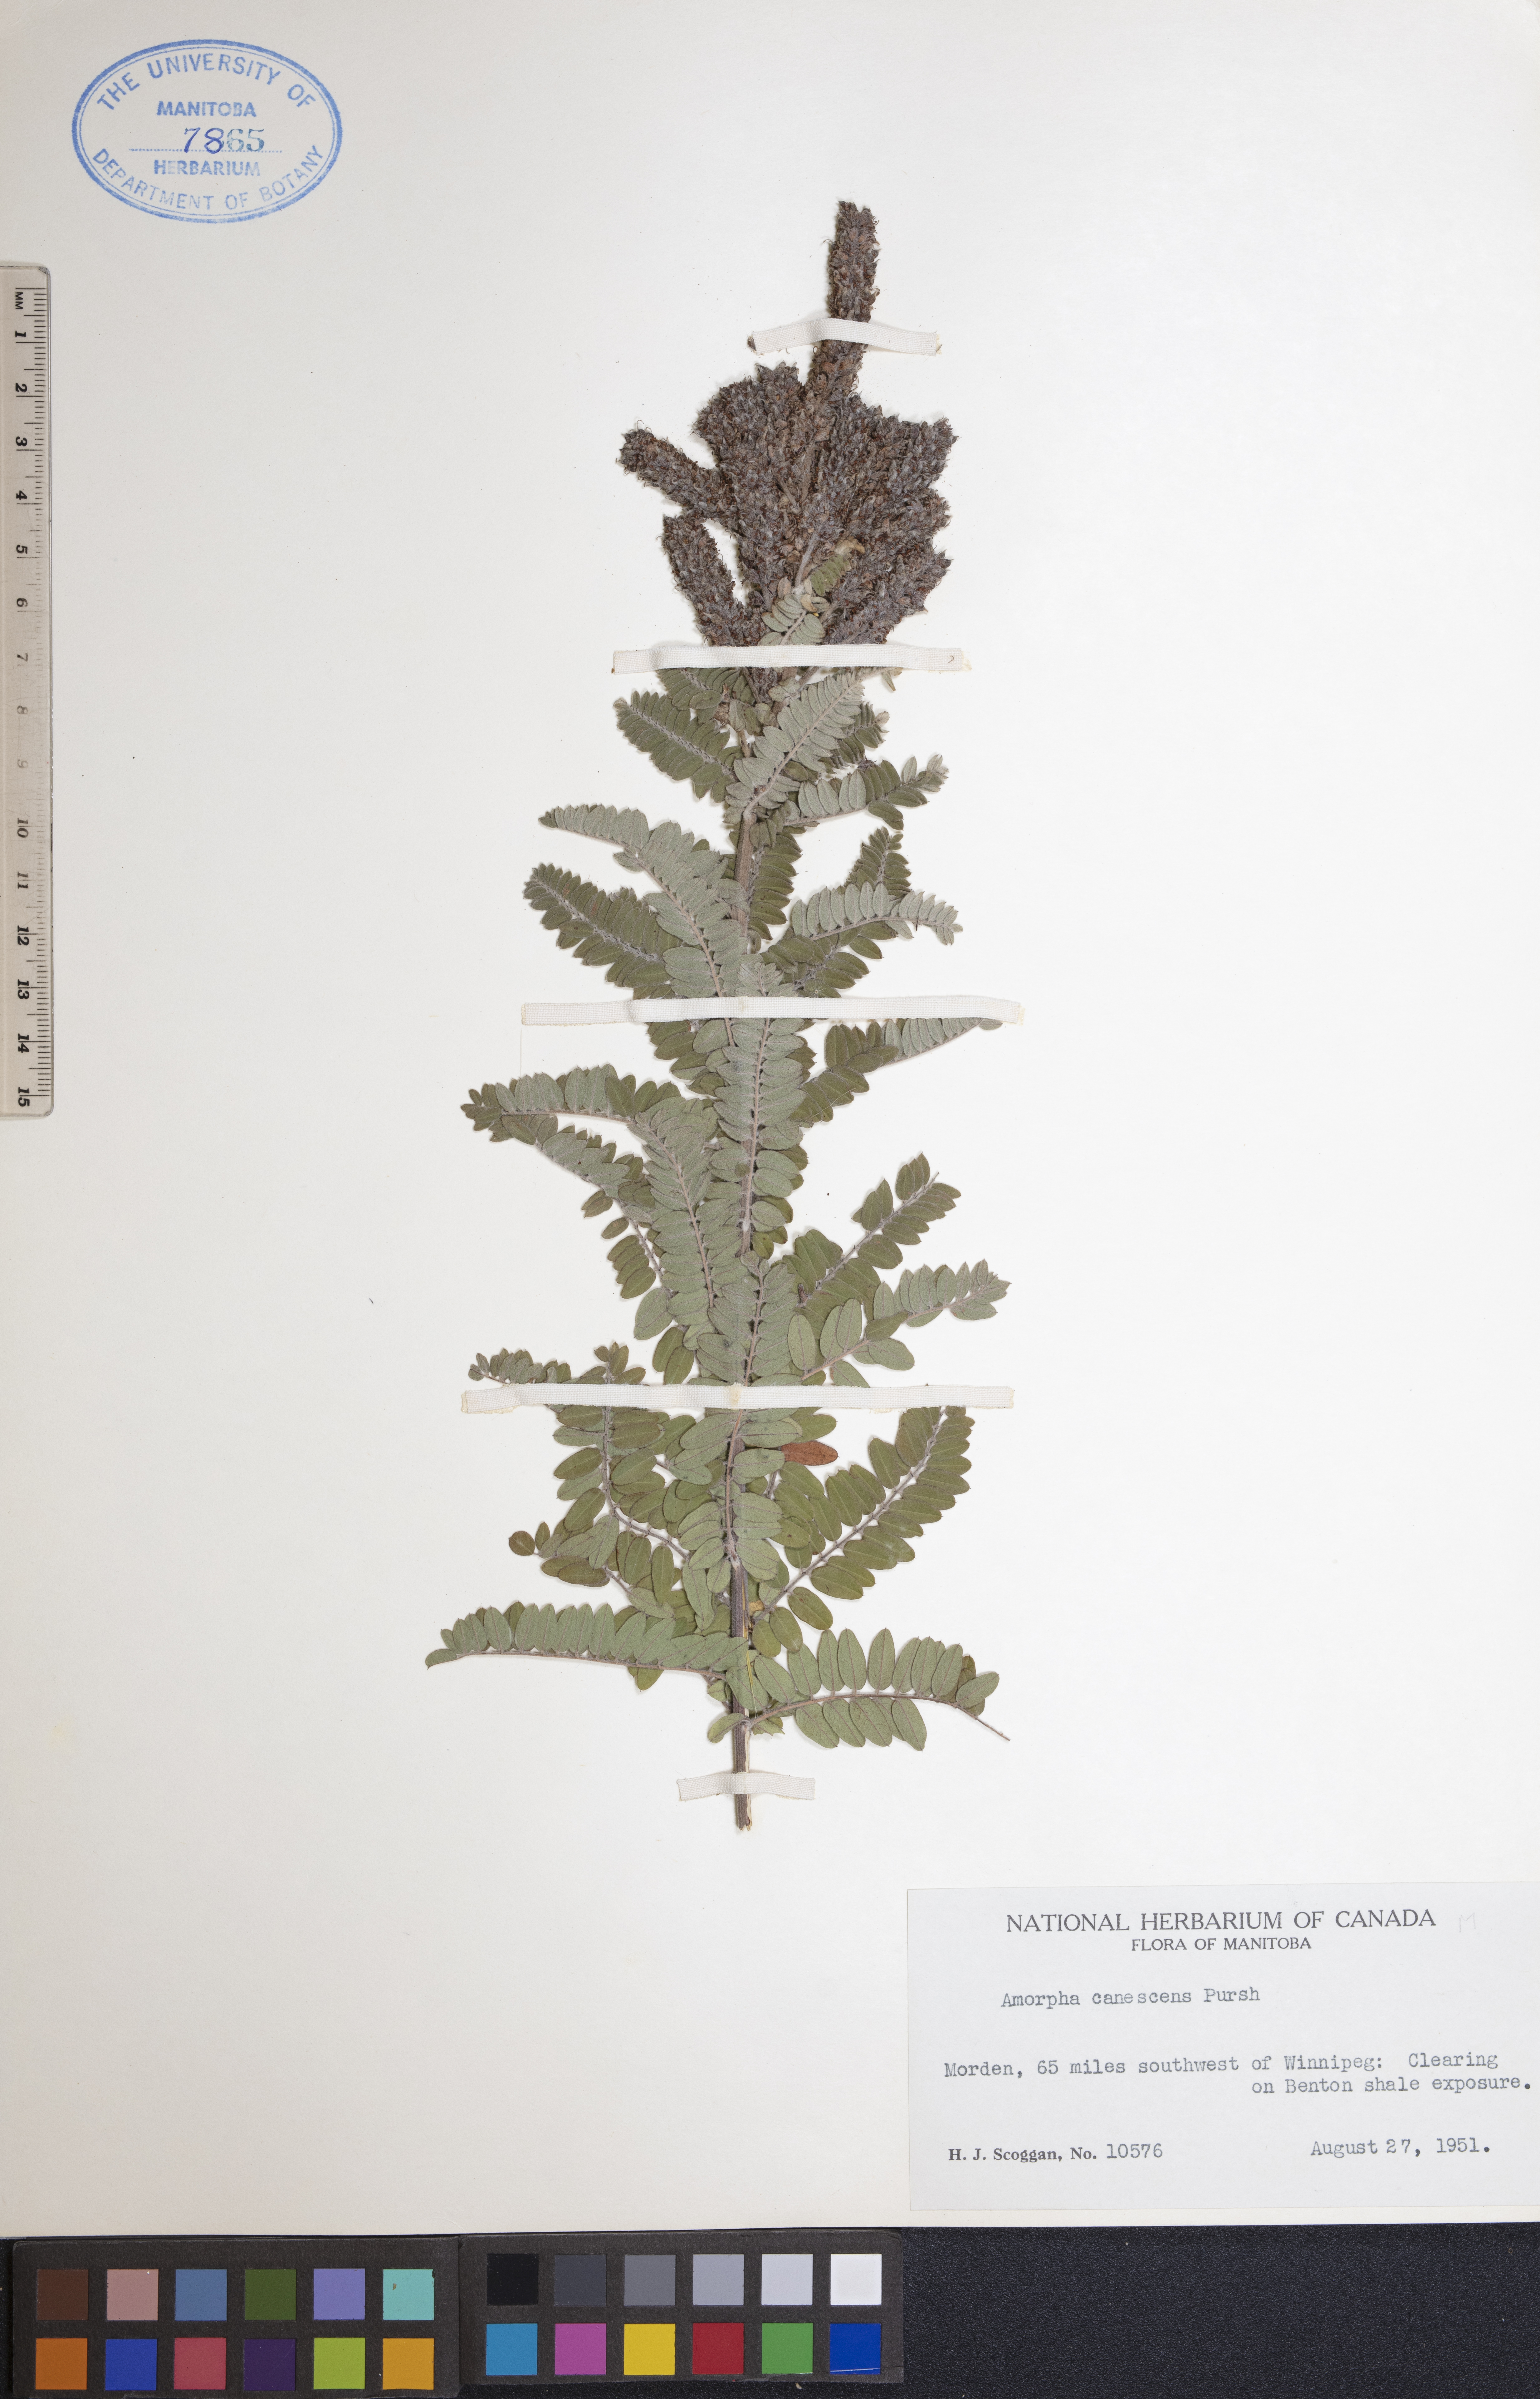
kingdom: Plantae
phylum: Tracheophyta
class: Magnoliopsida
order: Fabales
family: Fabaceae
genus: Amorpha
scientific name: Amorpha canescens
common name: Leadplant
